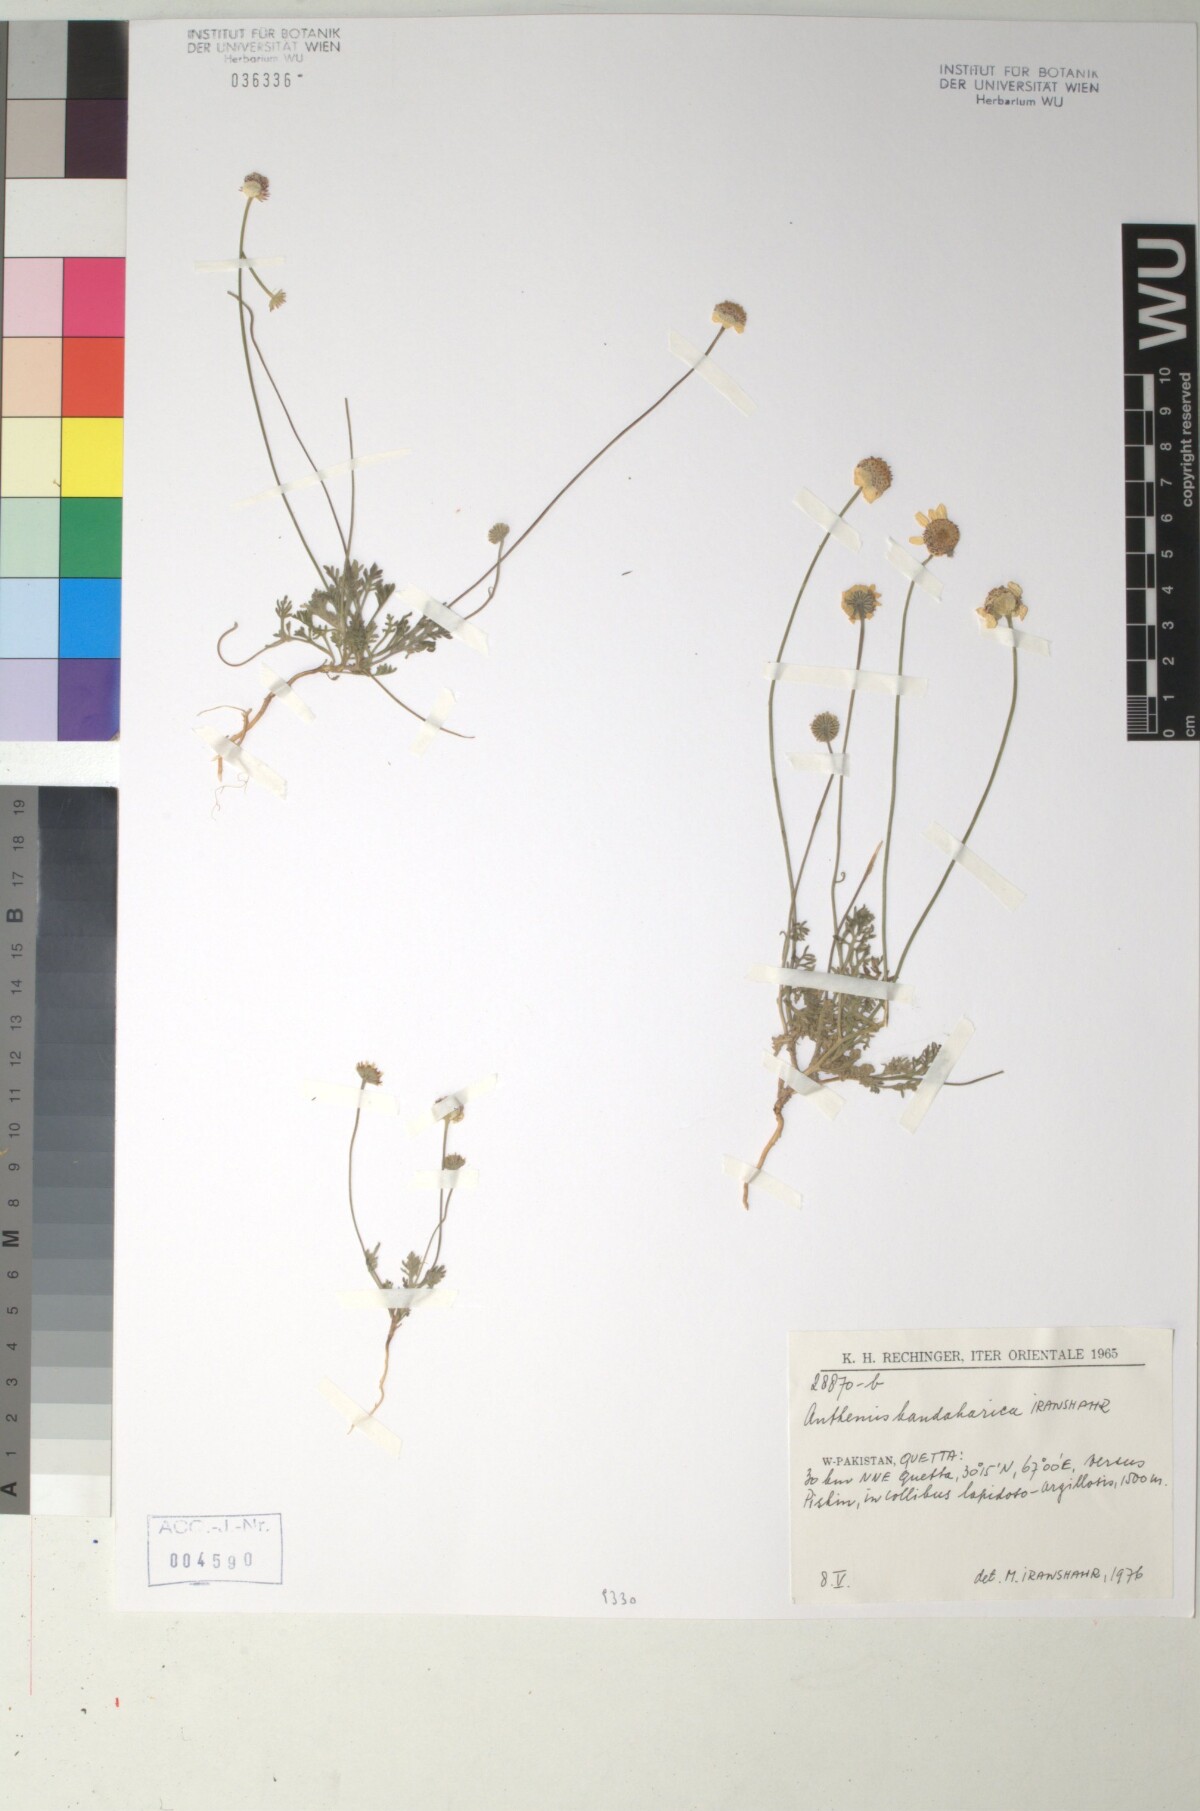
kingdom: Plantae
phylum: Tracheophyta
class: Magnoliopsida
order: Asterales
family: Asteraceae
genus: Anthemis
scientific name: Anthemis kandaharica
